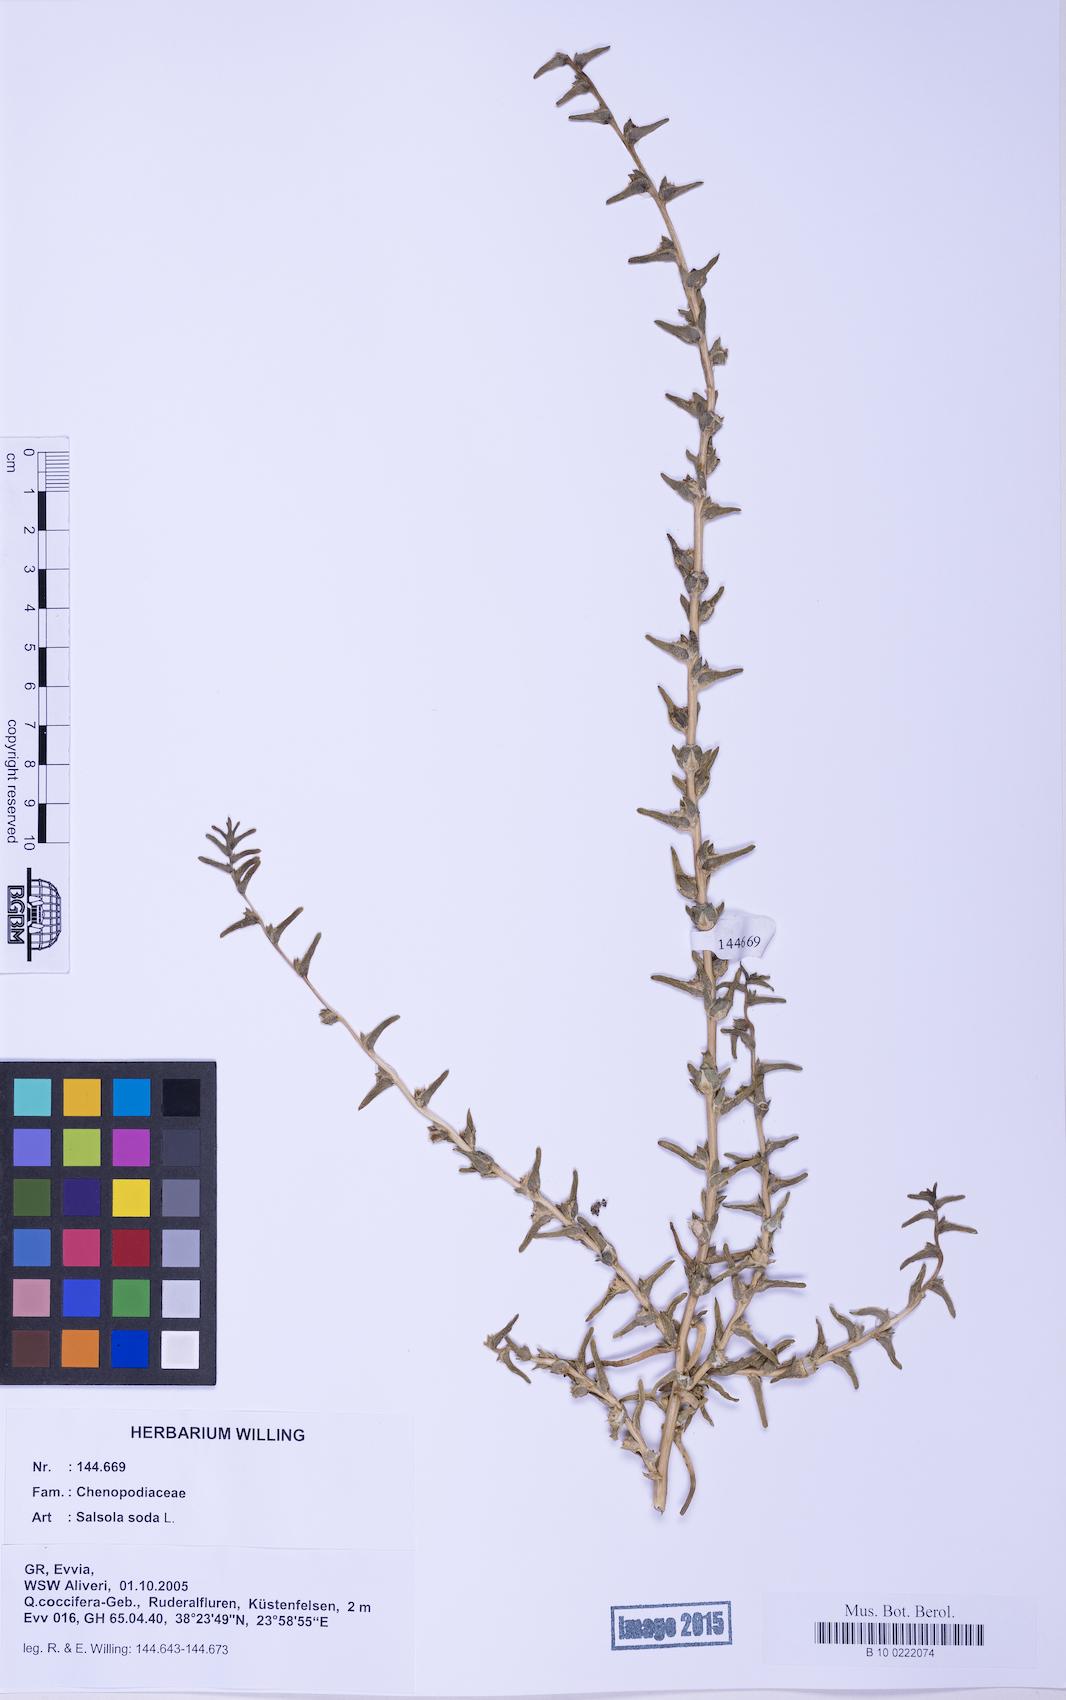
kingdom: Plantae
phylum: Tracheophyta
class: Magnoliopsida
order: Caryophyllales
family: Amaranthaceae
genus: Soda
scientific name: Soda inermis
